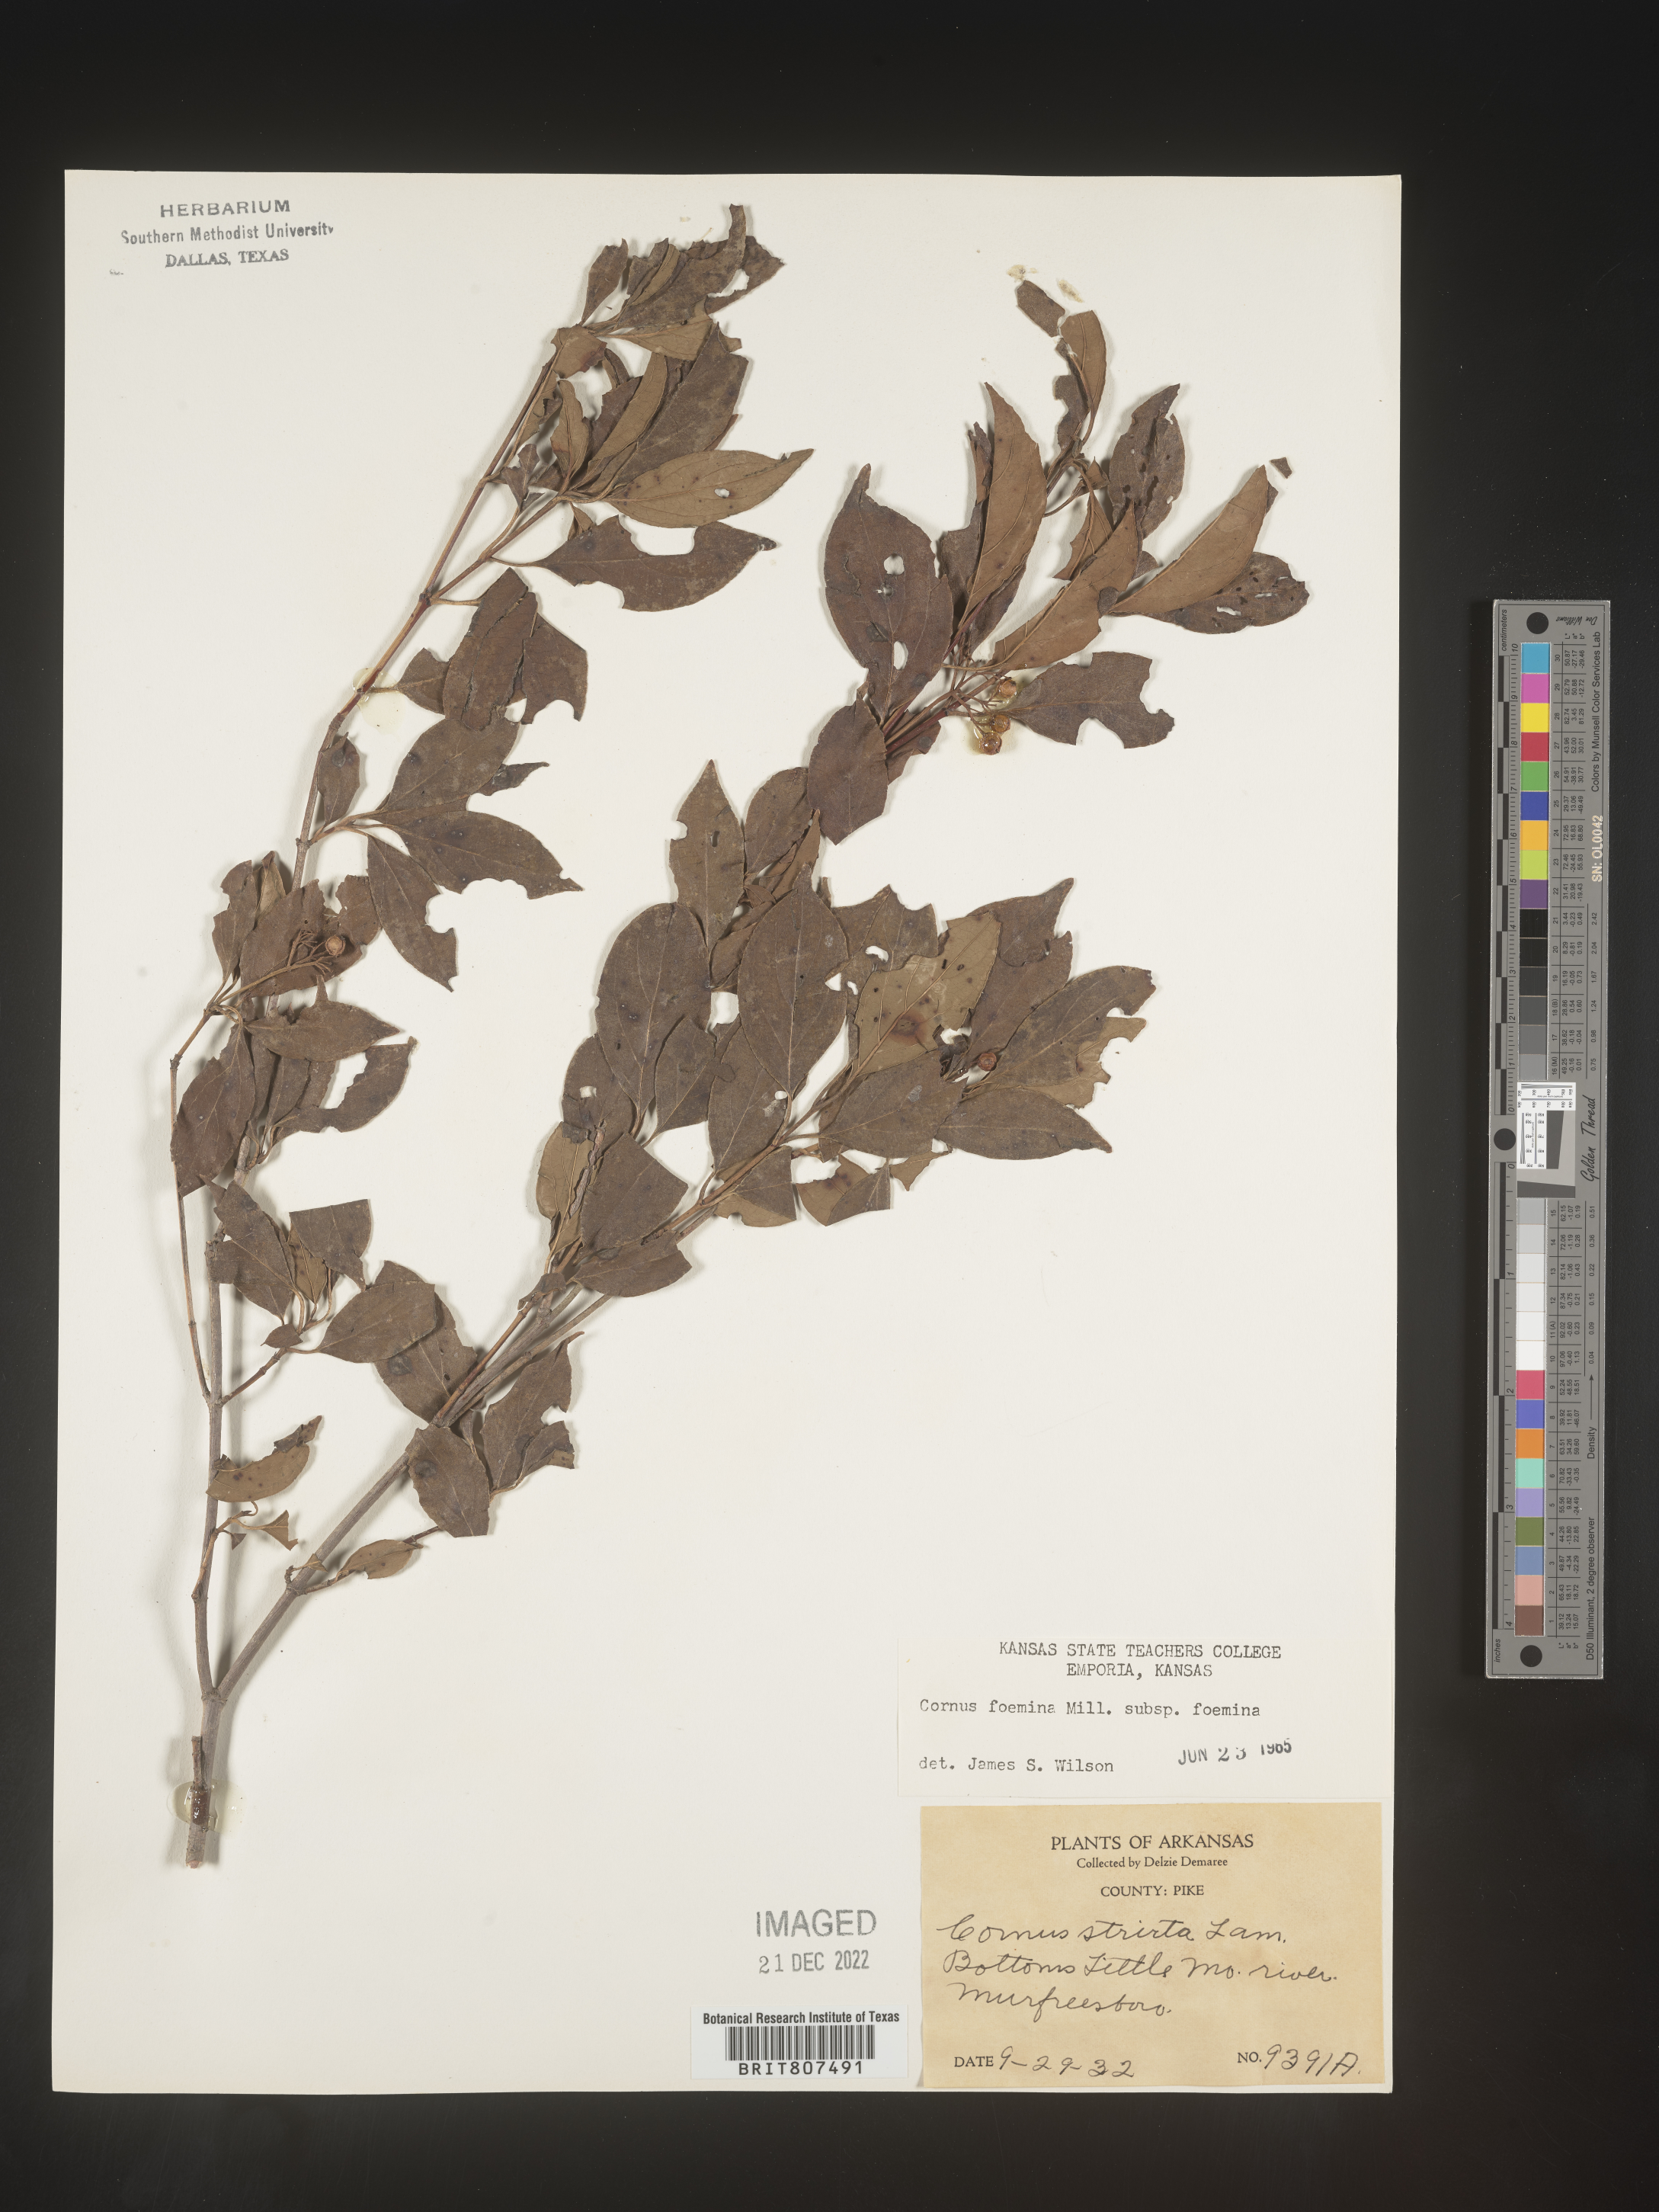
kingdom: Plantae
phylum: Tracheophyta
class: Magnoliopsida
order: Cornales
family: Cornaceae
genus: Cornus
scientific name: Cornus foemina
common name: Swamp dogwood
